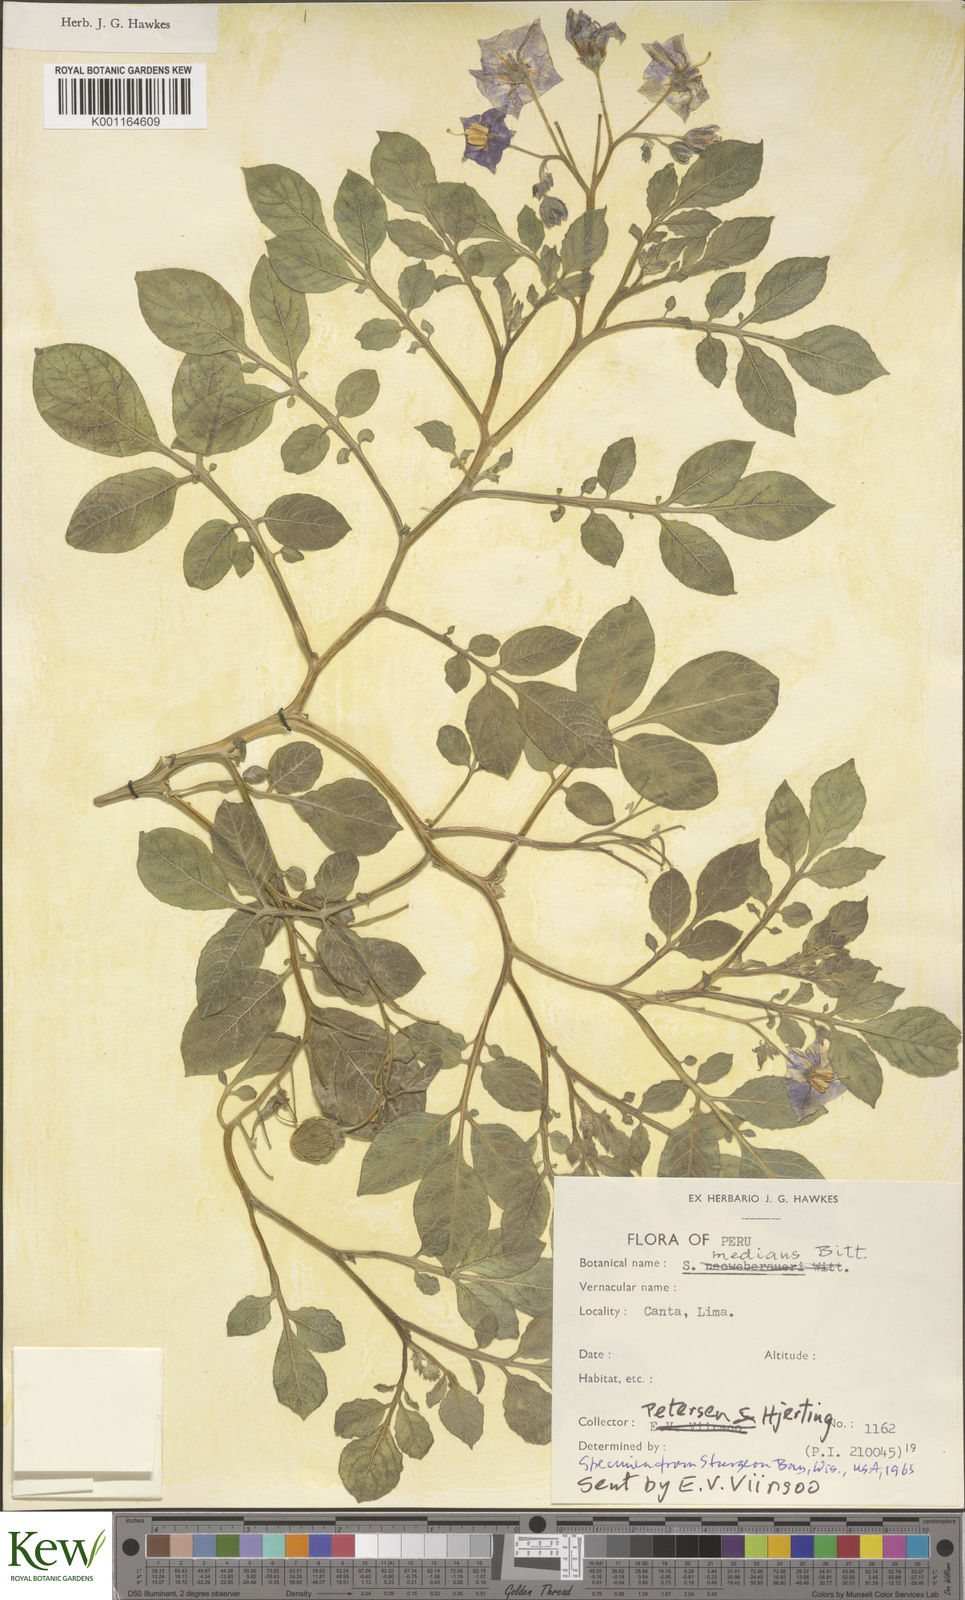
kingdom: Plantae
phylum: Tracheophyta
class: Magnoliopsida
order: Solanales
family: Solanaceae
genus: Solanum
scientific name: Solanum medians
